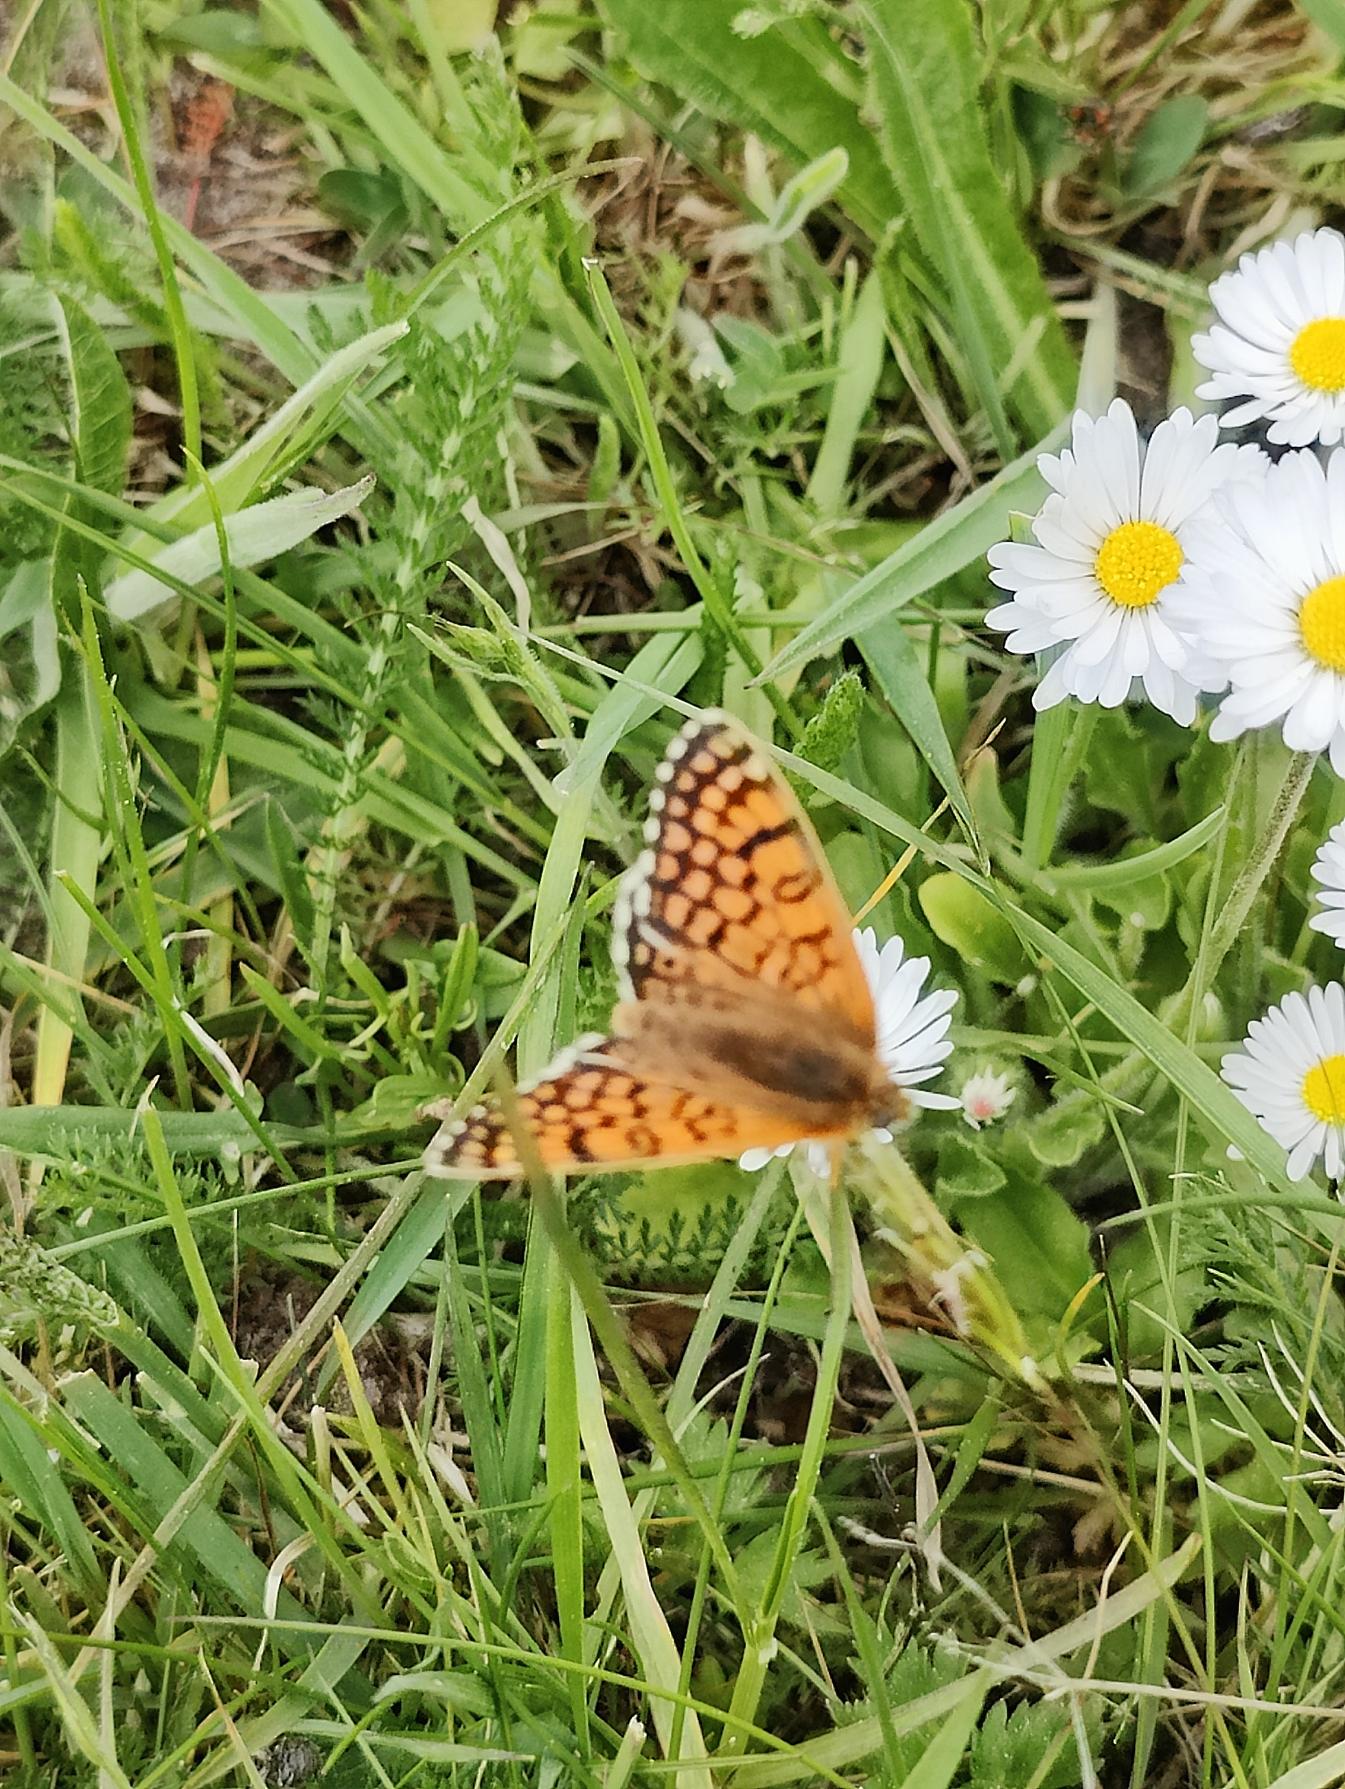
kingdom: Animalia
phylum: Arthropoda
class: Insecta
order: Lepidoptera
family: Nymphalidae
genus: Melitaea
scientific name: Melitaea cinxia
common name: Okkergul pletvinge
